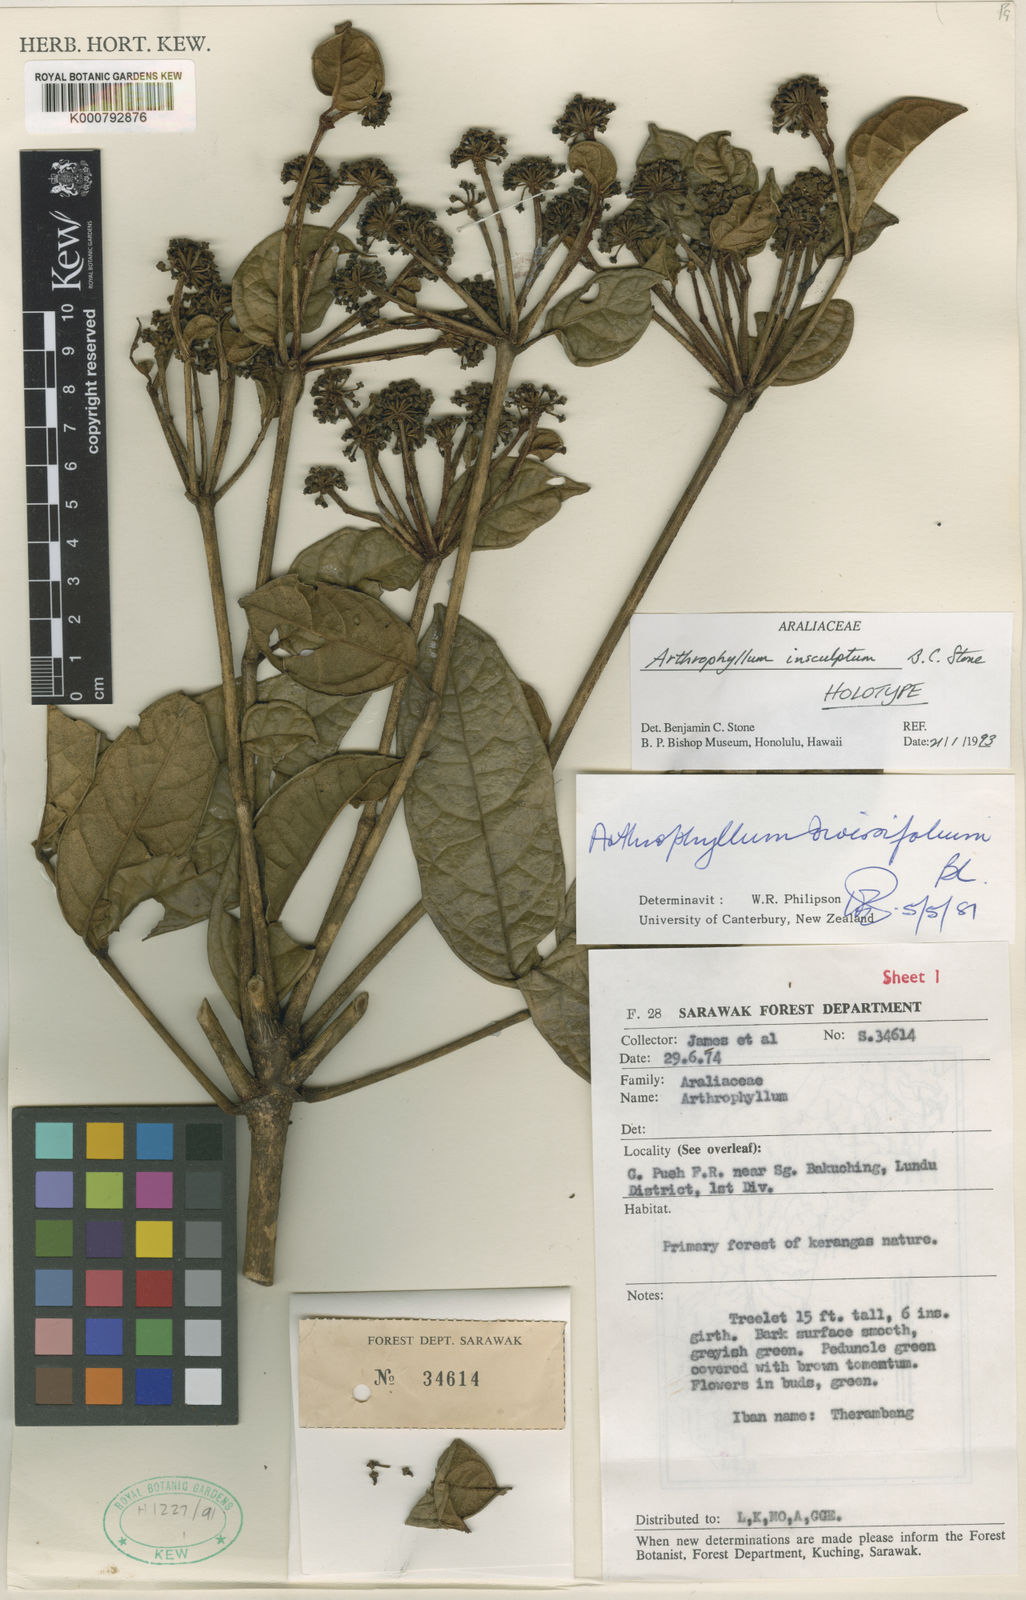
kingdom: Plantae
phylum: Tracheophyta
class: Magnoliopsida
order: Lamiales
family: Bignoniaceae
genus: Arthrophyllum
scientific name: Arthrophyllum
